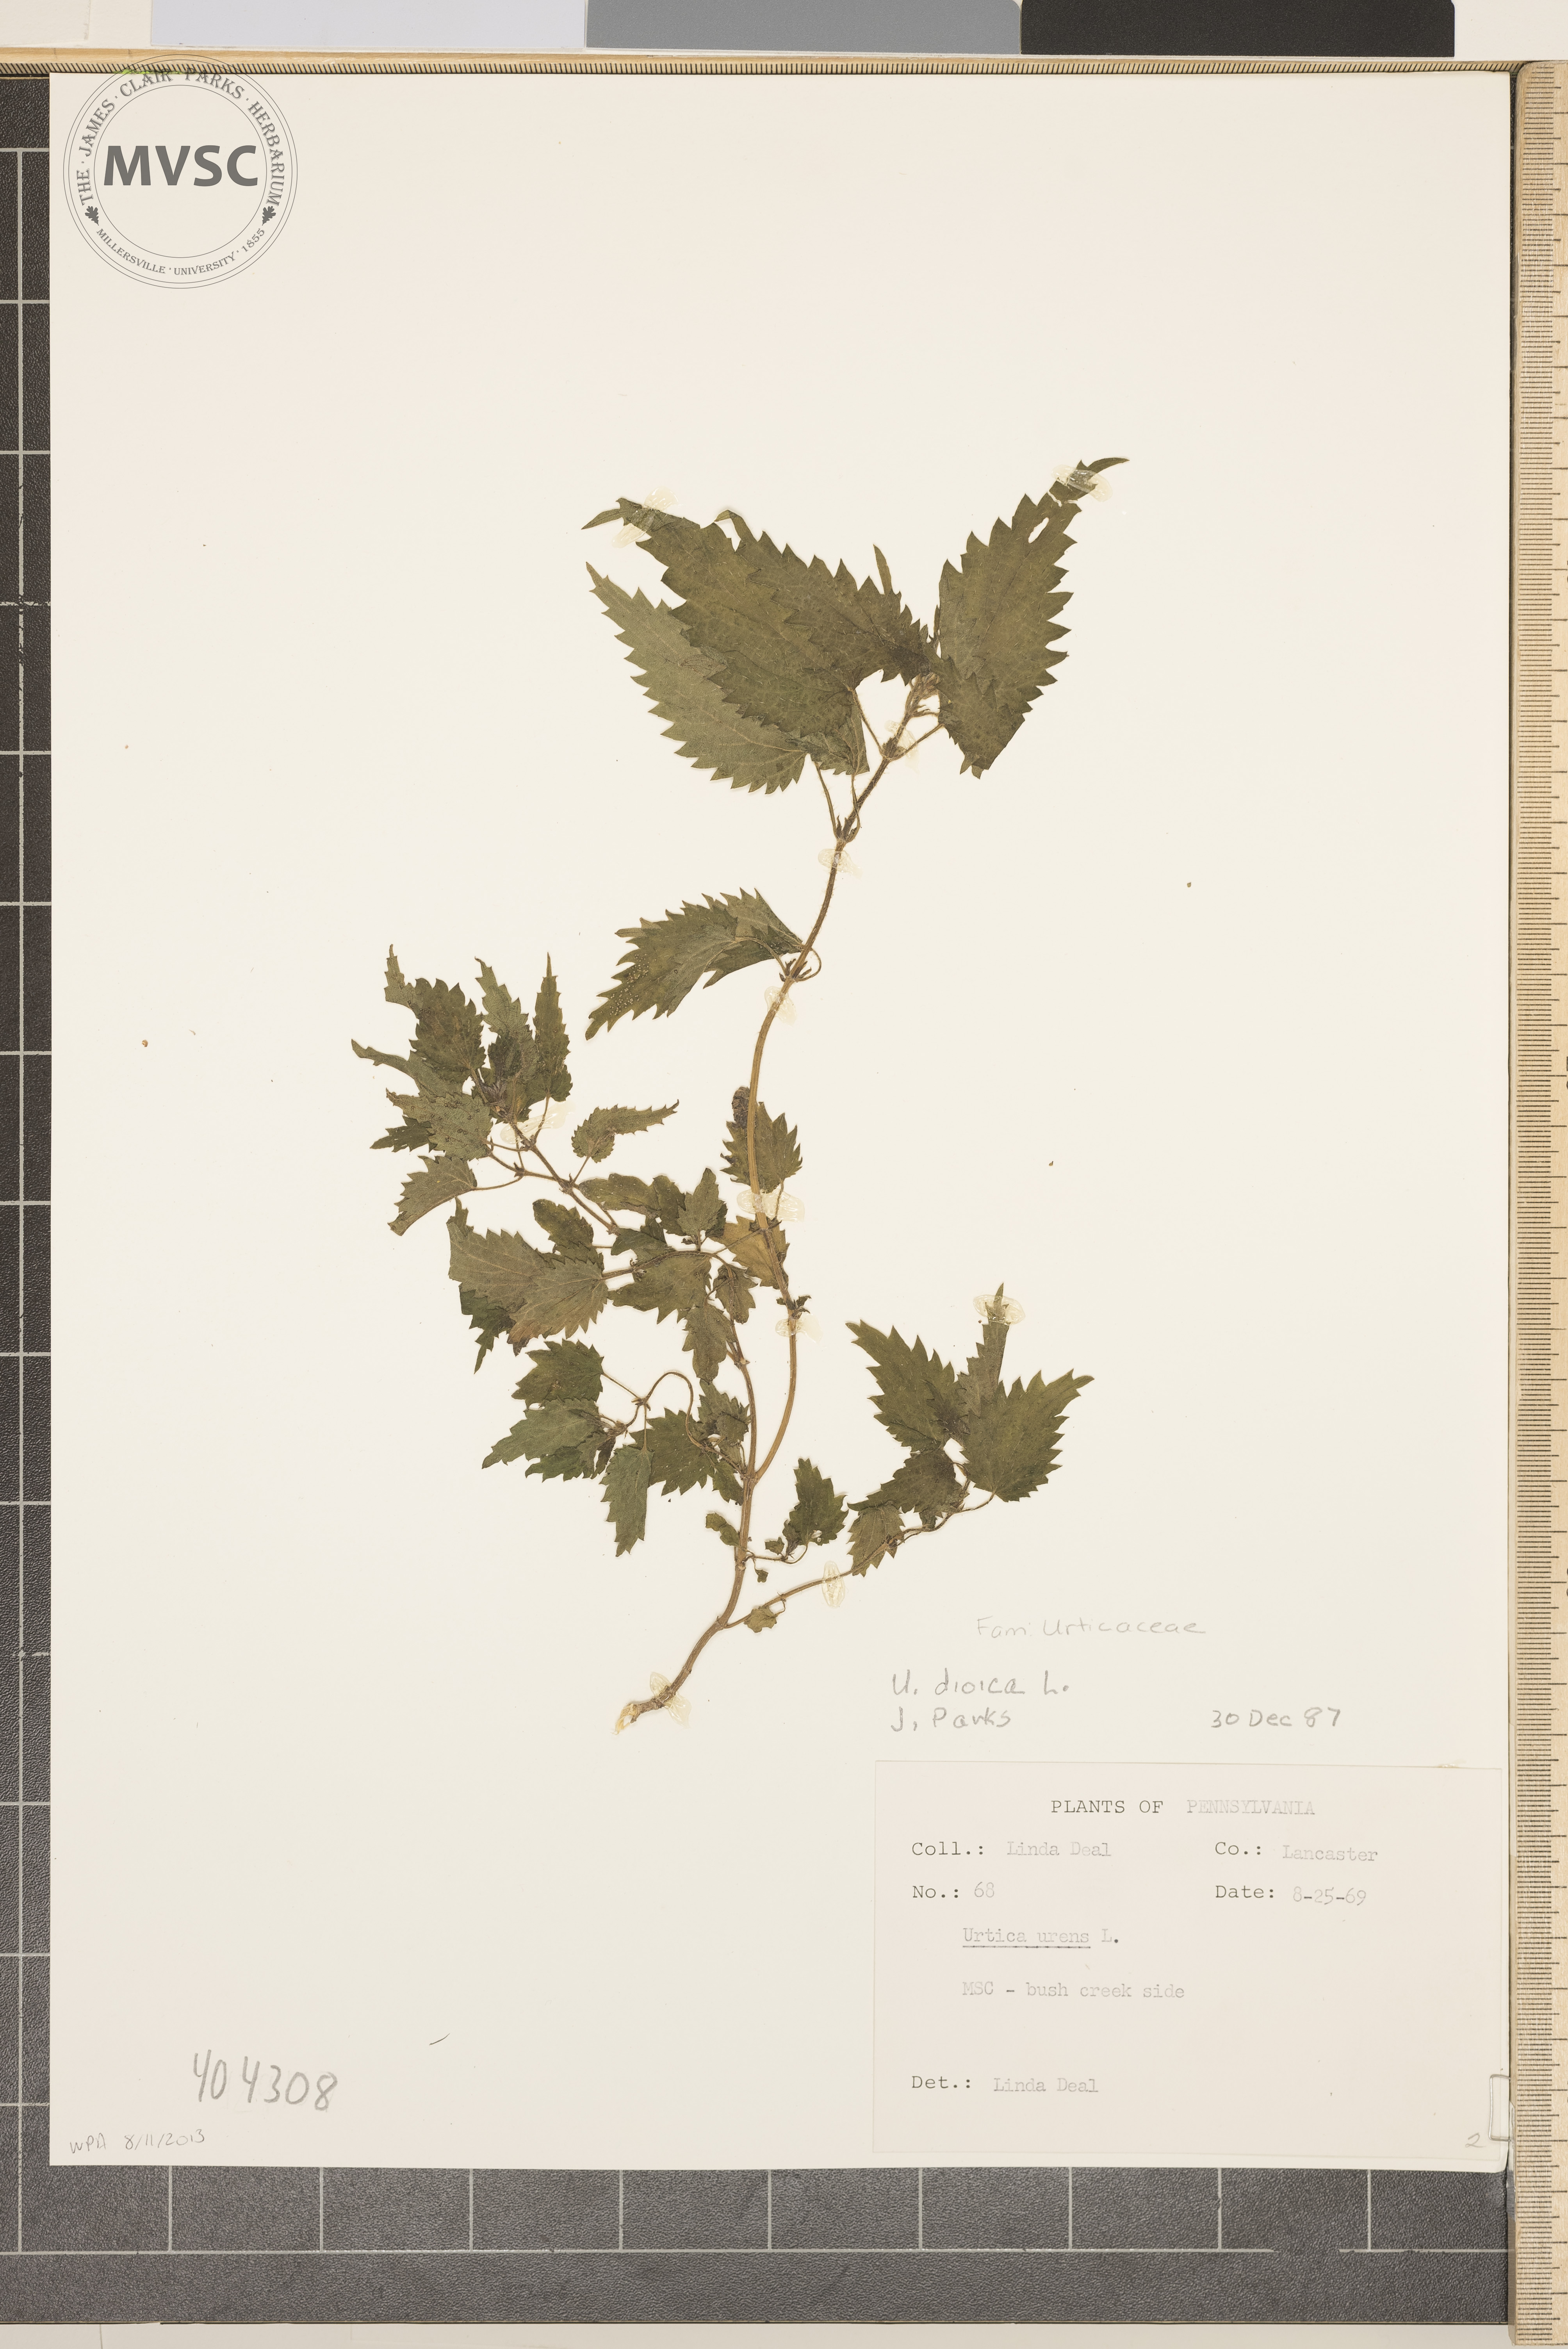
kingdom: Plantae
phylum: Tracheophyta
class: Magnoliopsida
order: Rosales
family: Urticaceae
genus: Urtica
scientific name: Urtica dioica
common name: Common nettle
